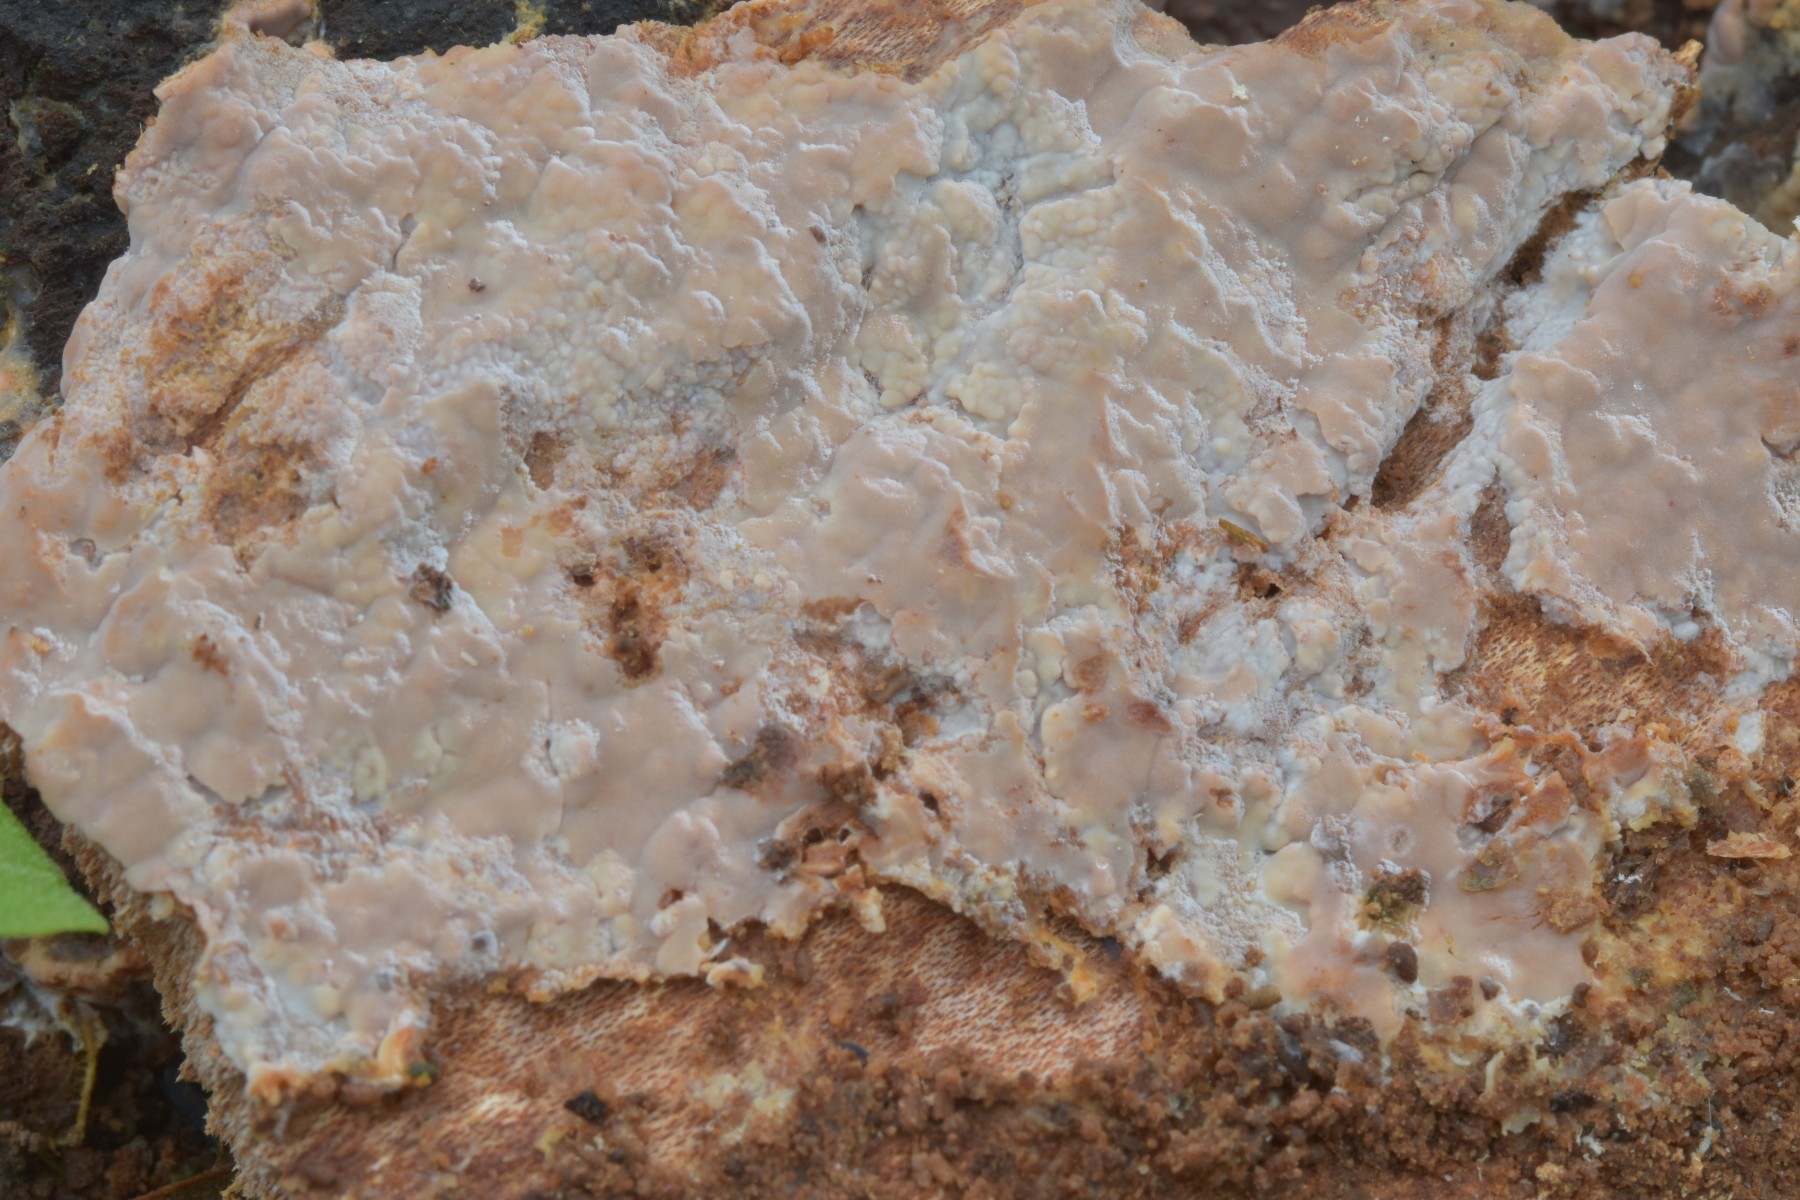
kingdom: Fungi
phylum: Basidiomycota
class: Agaricomycetes
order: Russulales
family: Peniophoraceae
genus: Gloiothele
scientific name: Gloiothele lactescens
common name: bitter olieskind
